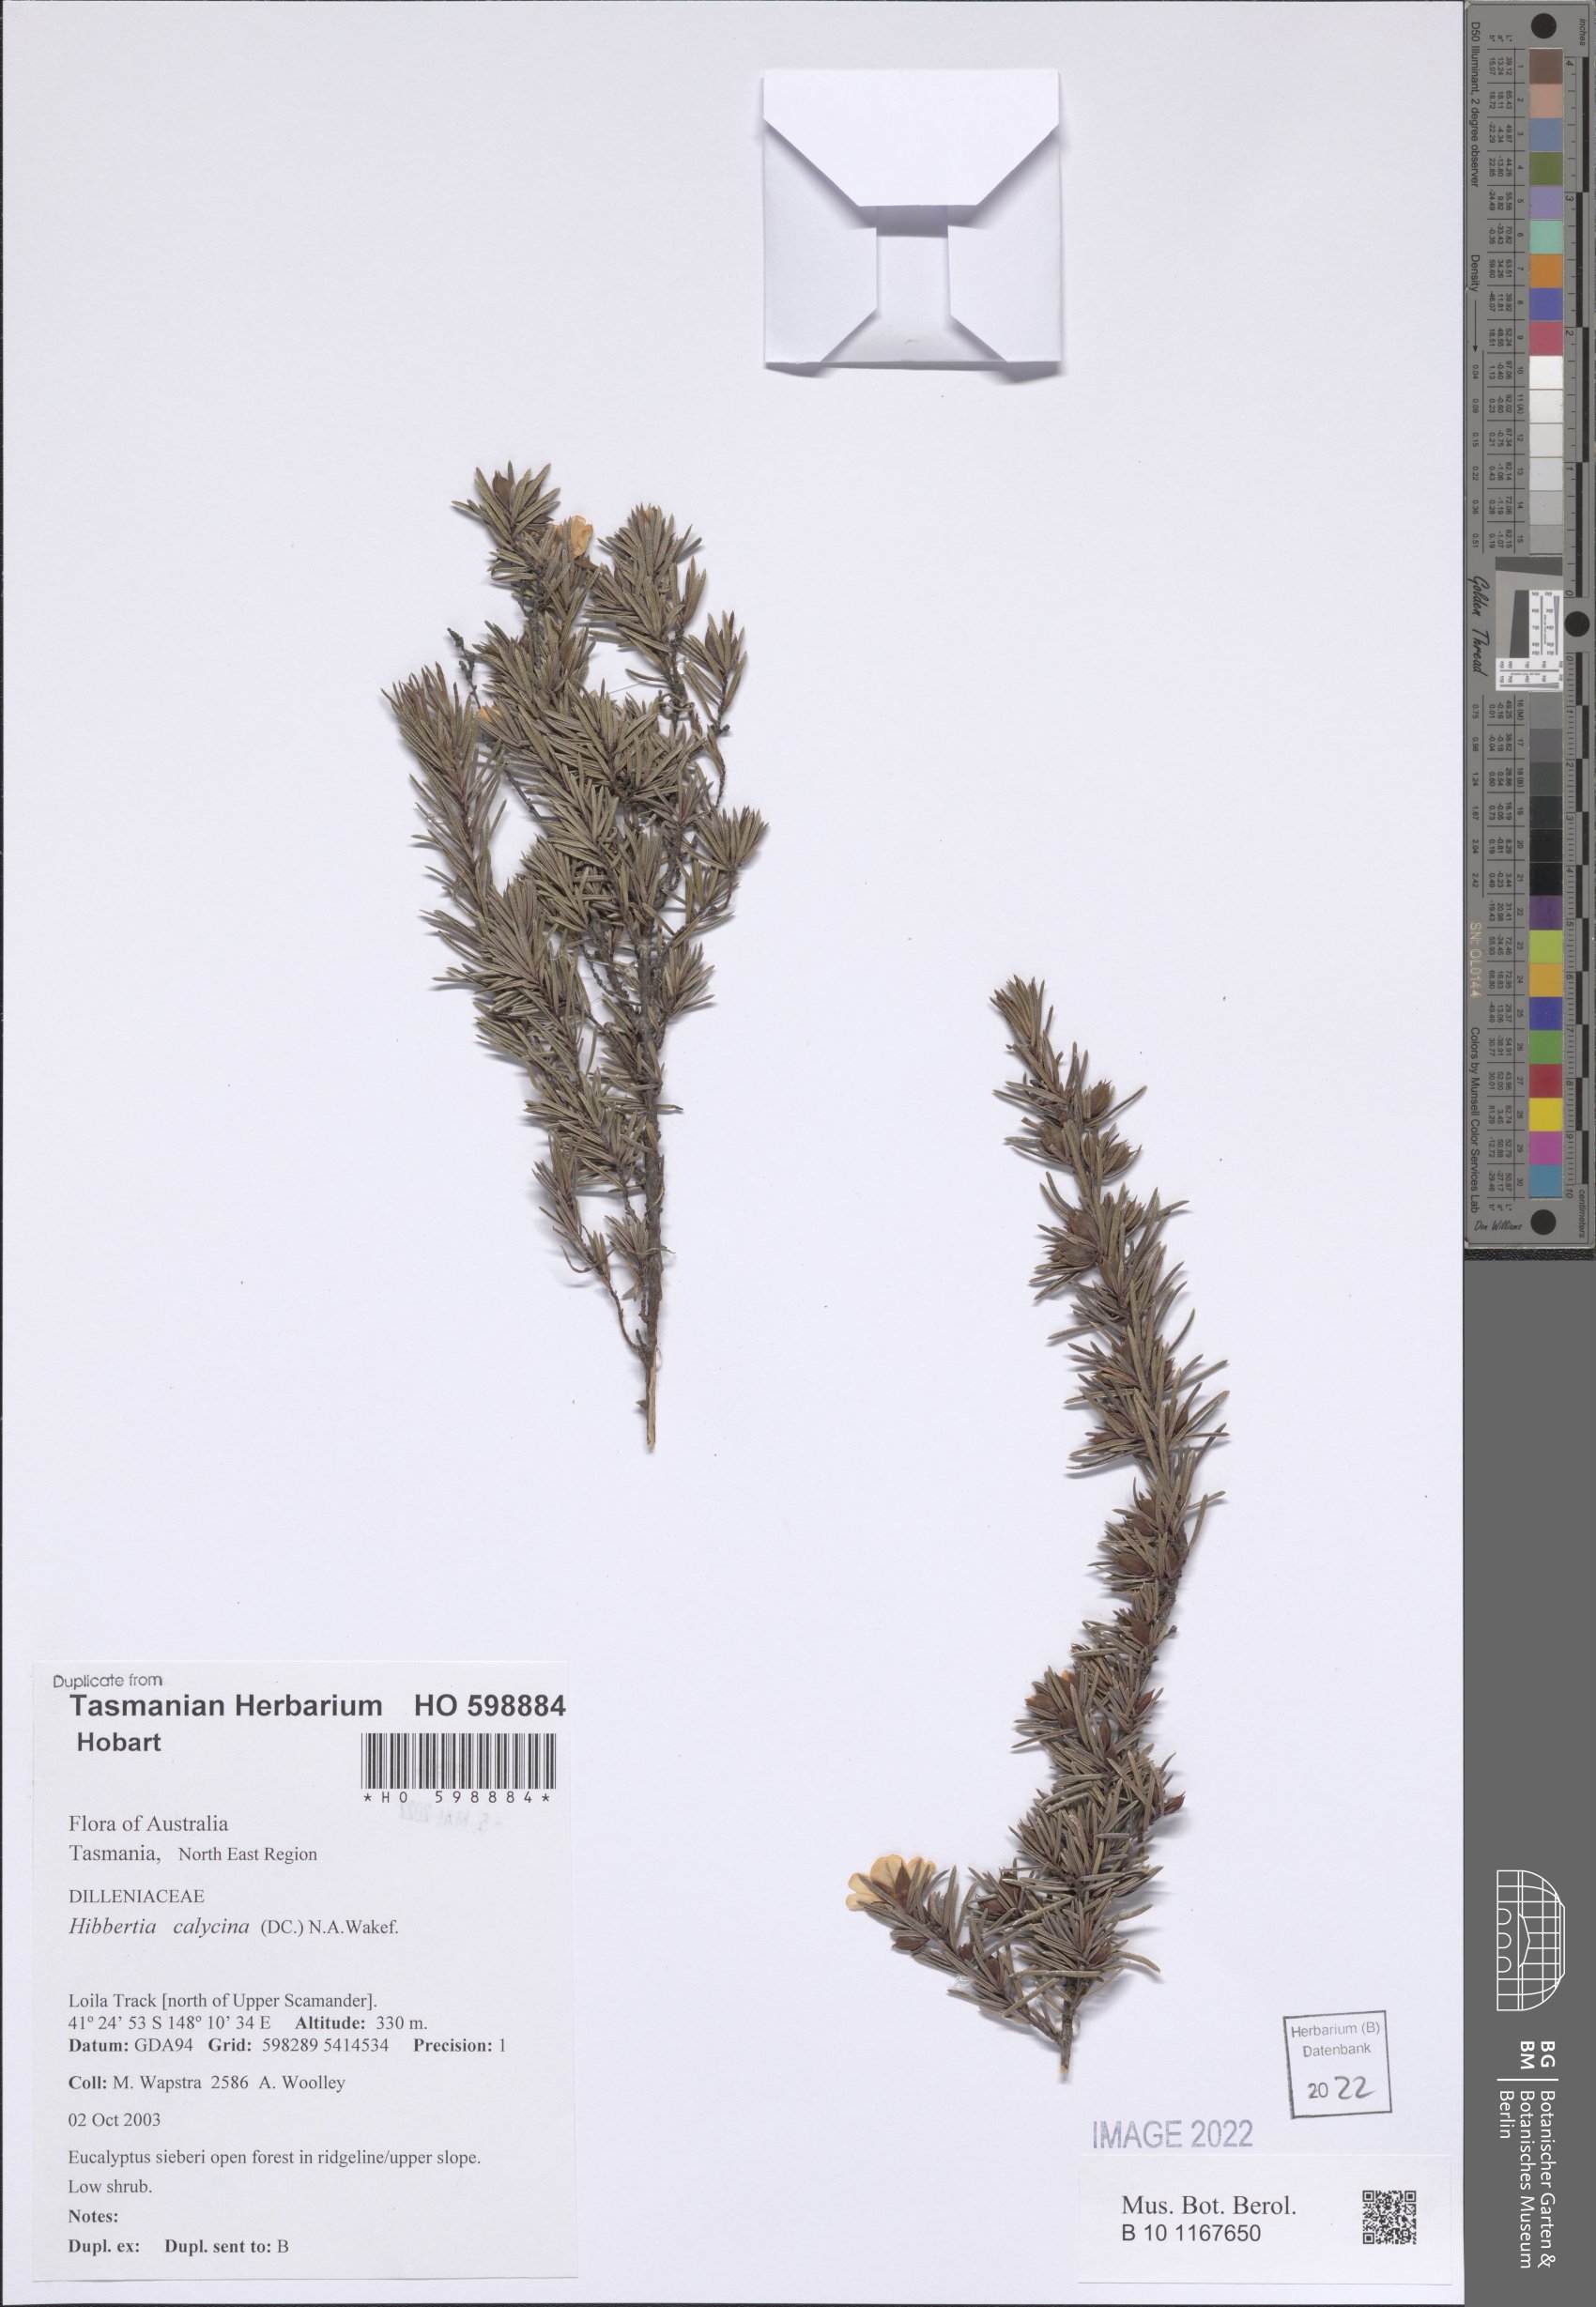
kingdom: Plantae
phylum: Tracheophyta
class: Magnoliopsida
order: Dilleniales
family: Dilleniaceae
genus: Hibbertia
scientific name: Hibbertia calycina
